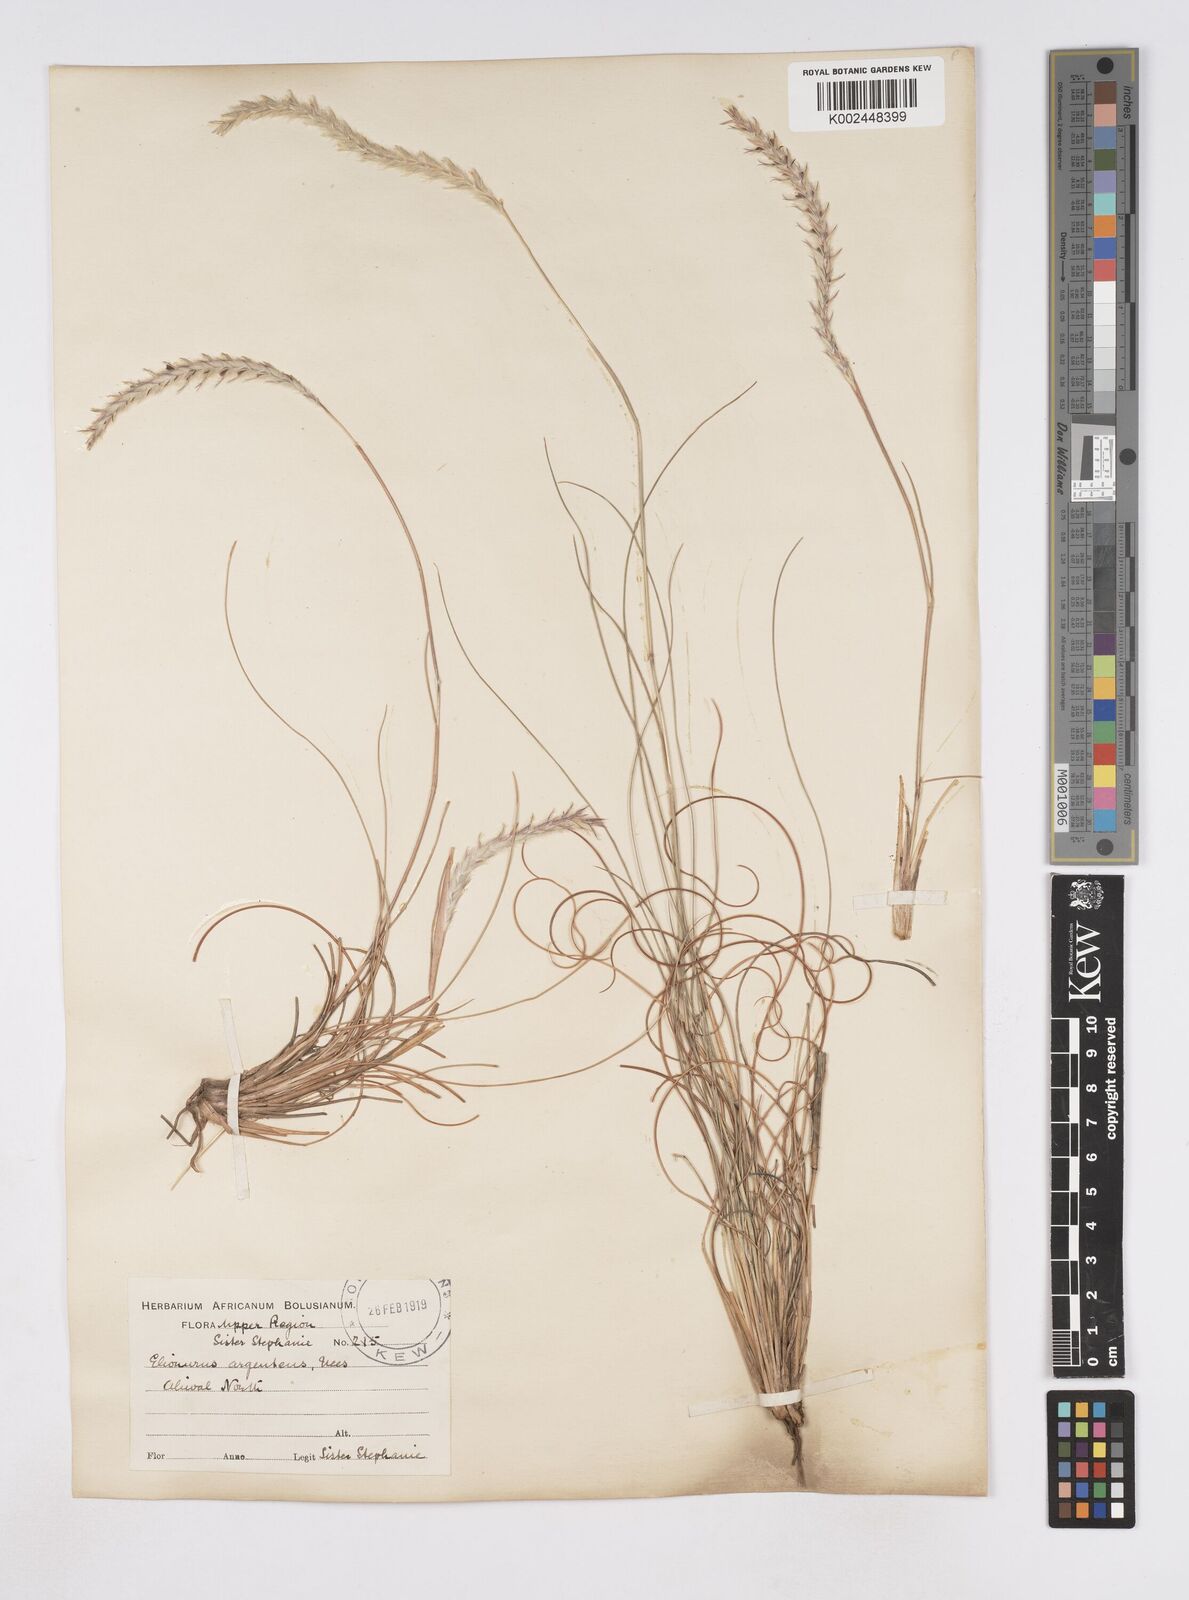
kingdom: Plantae
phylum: Tracheophyta
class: Liliopsida
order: Poales
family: Poaceae
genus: Elionurus
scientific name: Elionurus muticus
